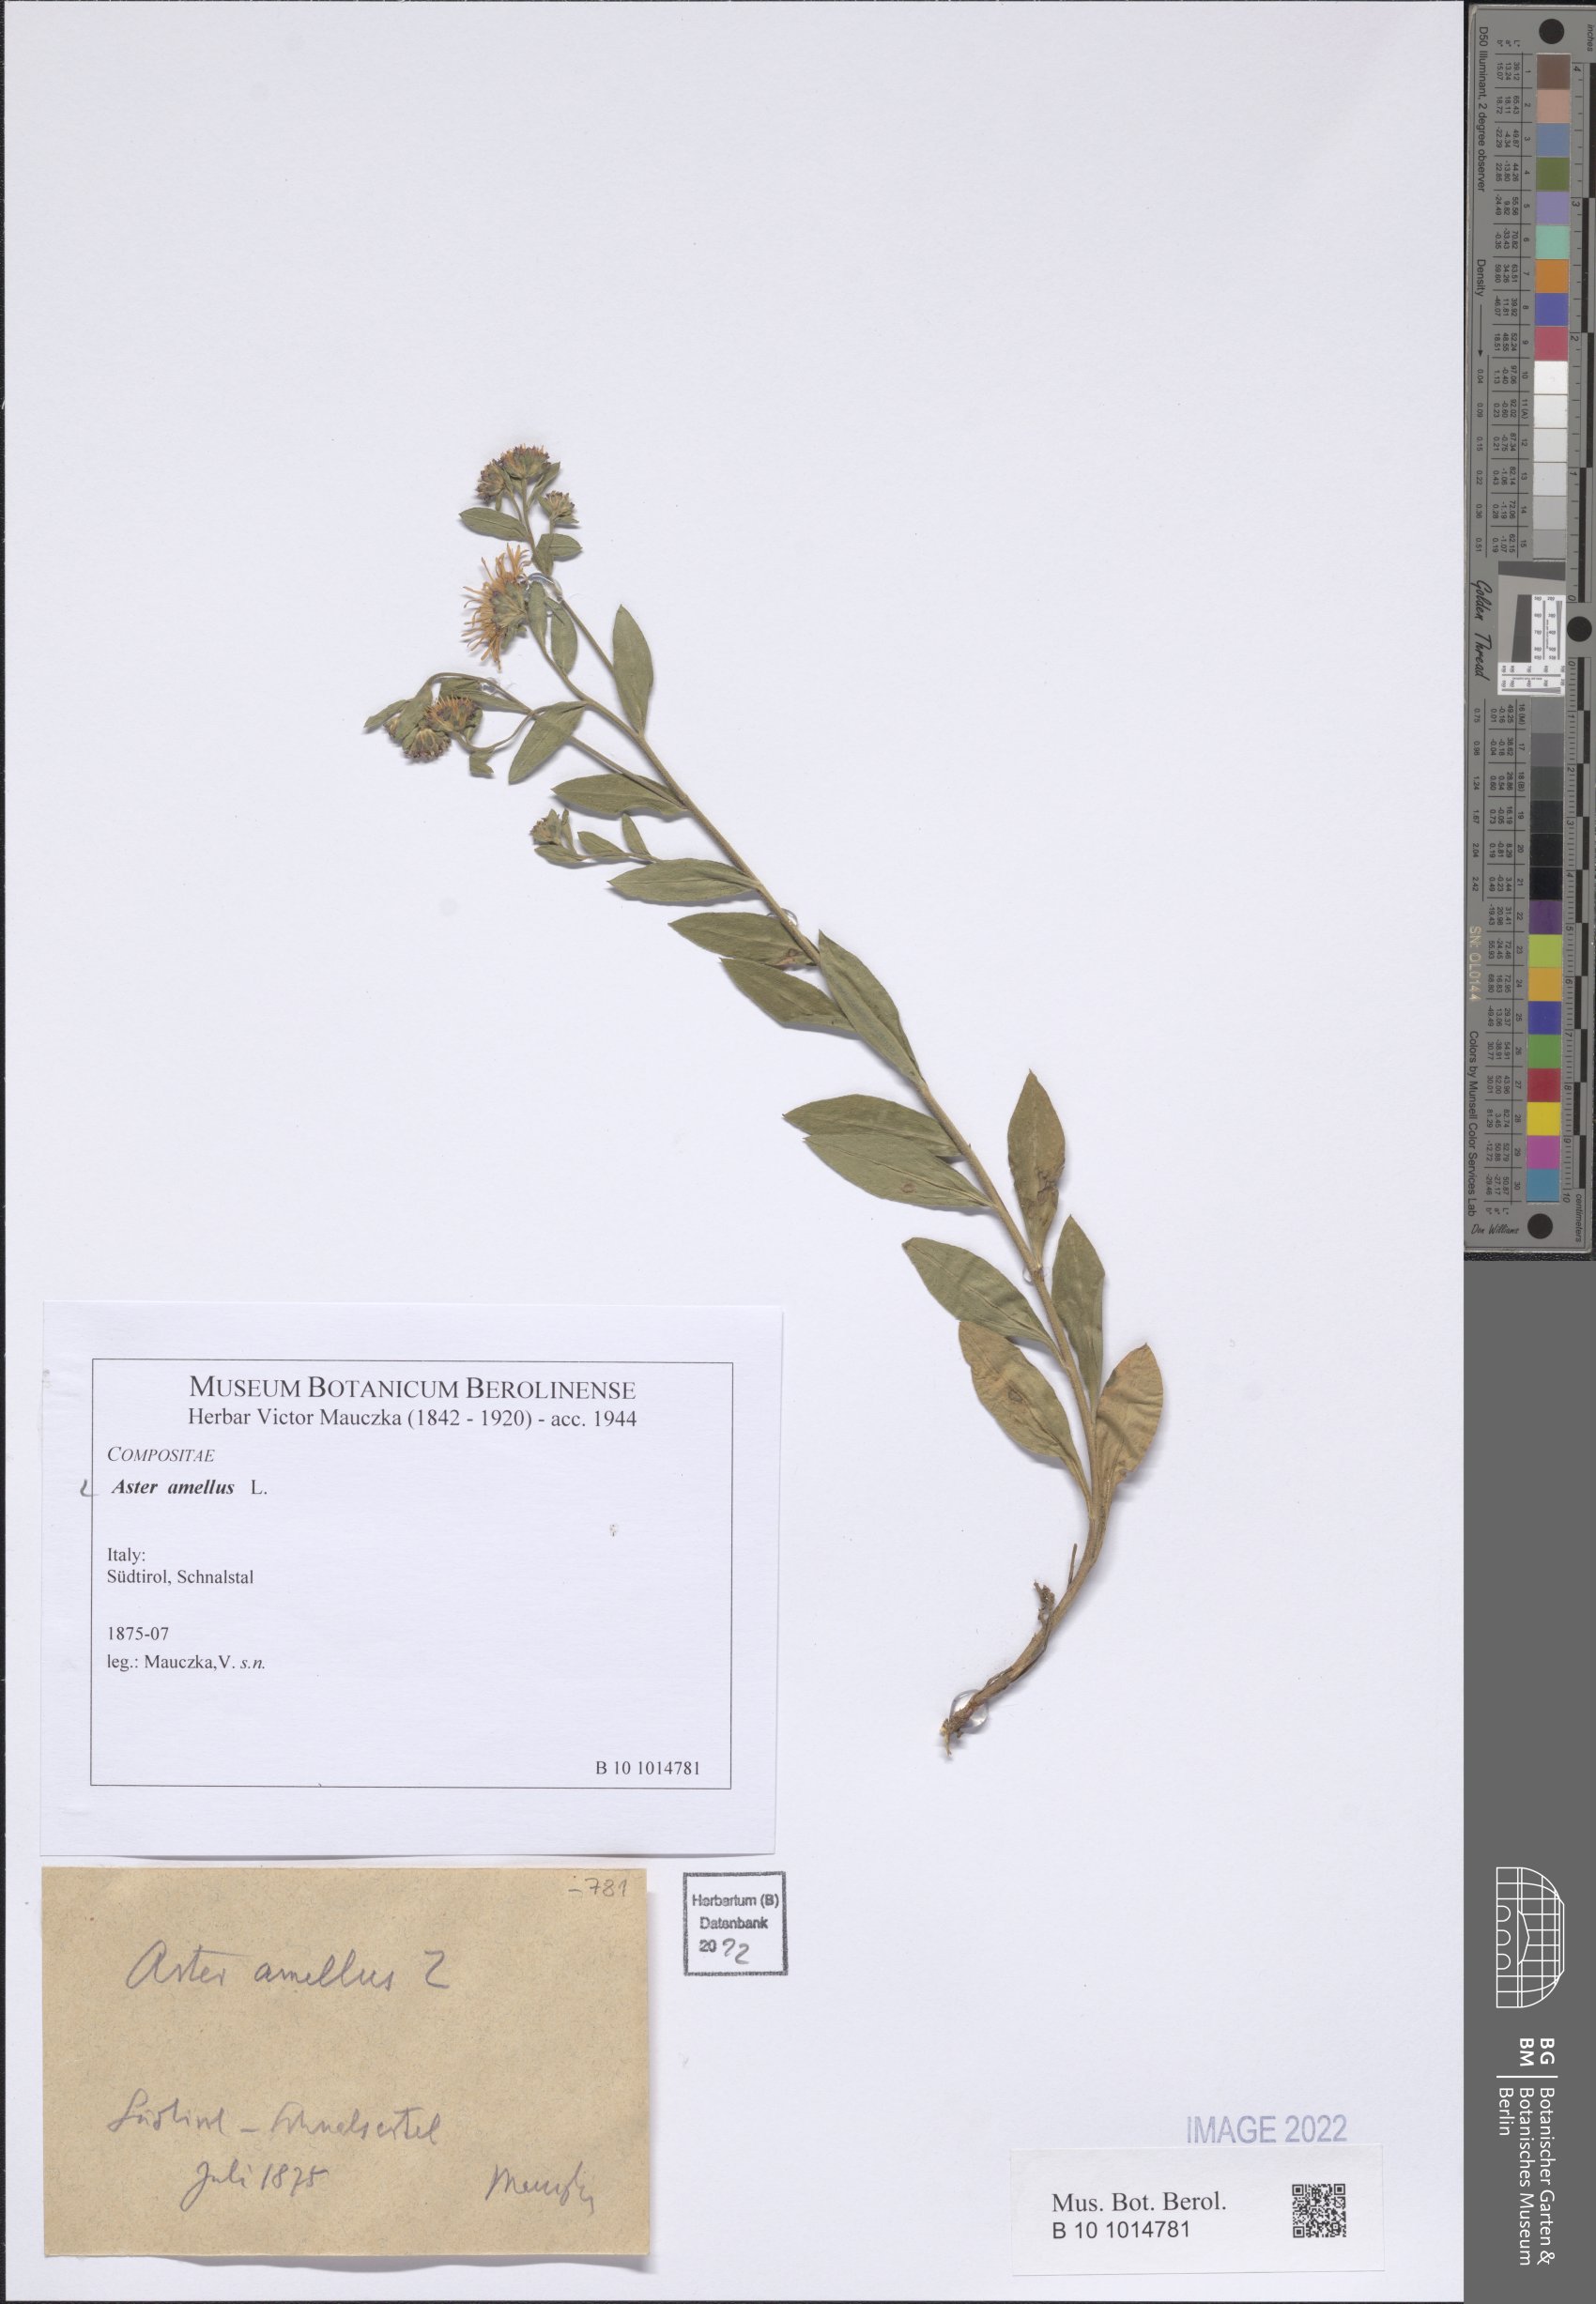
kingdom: Plantae
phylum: Tracheophyta
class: Magnoliopsida
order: Asterales
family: Asteraceae
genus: Aster
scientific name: Aster amellus
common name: European michaelmas daisy
